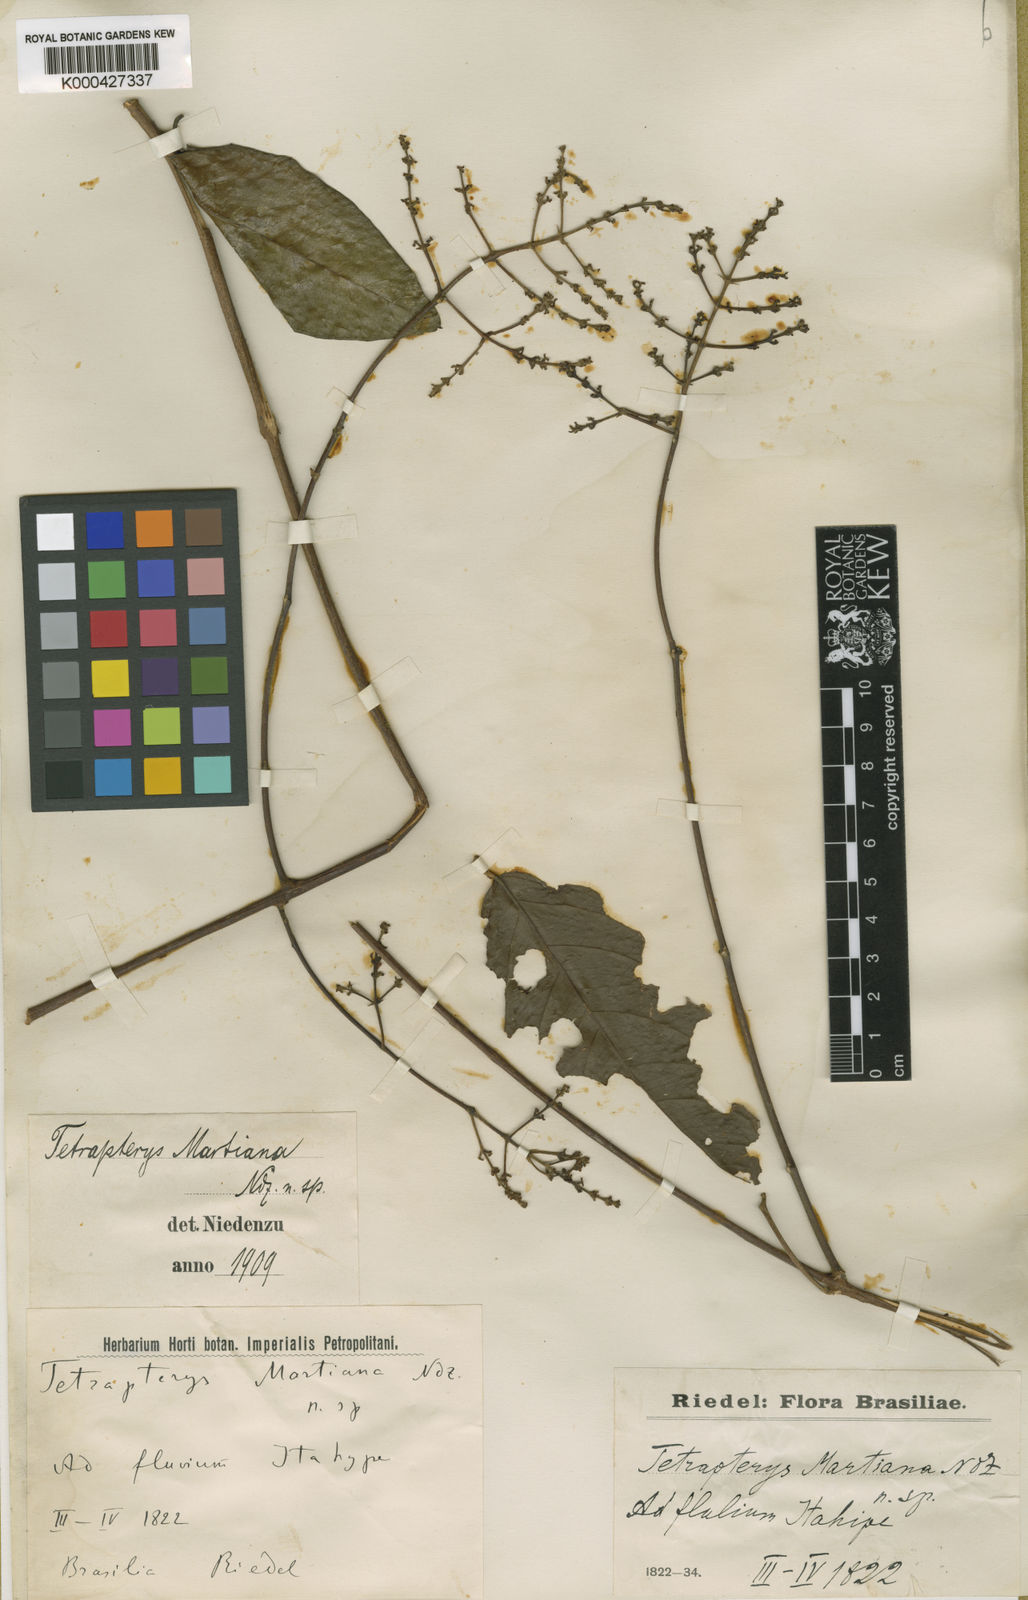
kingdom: Plantae
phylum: Tracheophyta
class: Magnoliopsida
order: Malpighiales
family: Malpighiaceae
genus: Niedenzuella
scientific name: Niedenzuella leucosepala
